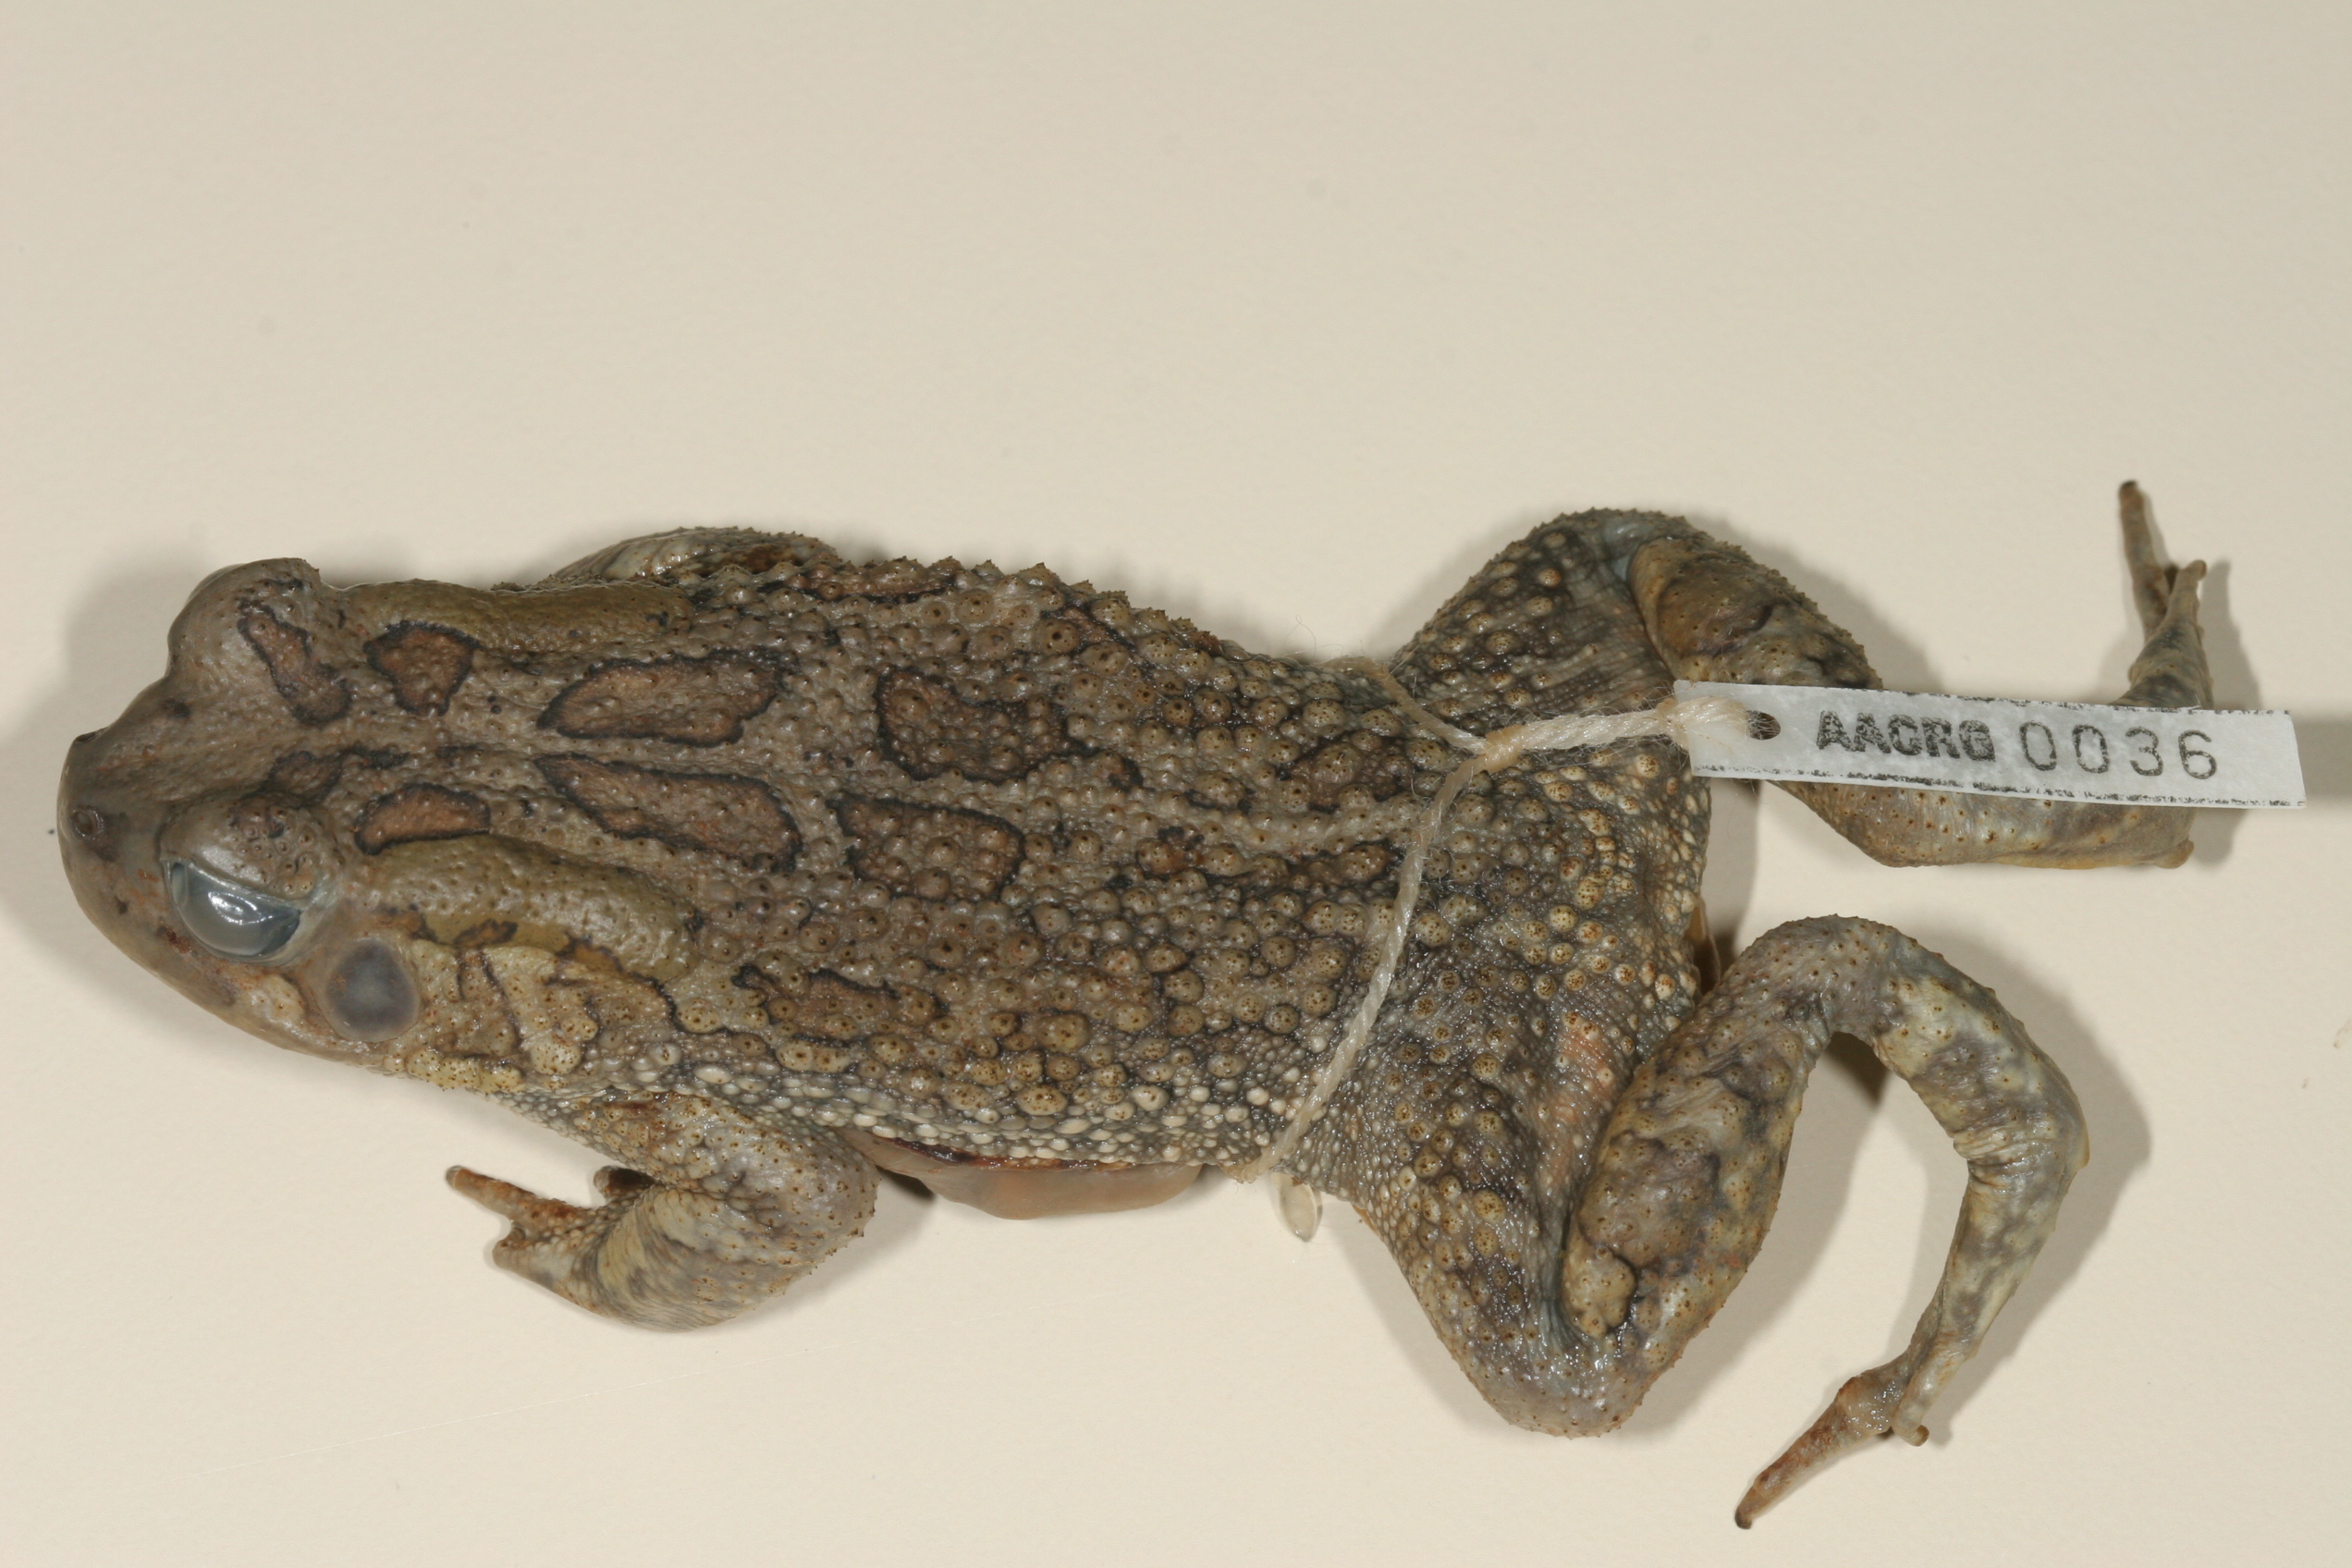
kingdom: Animalia
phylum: Chordata
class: Amphibia
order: Anura
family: Bufonidae
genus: Sclerophrys
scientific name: Sclerophrys garmani
